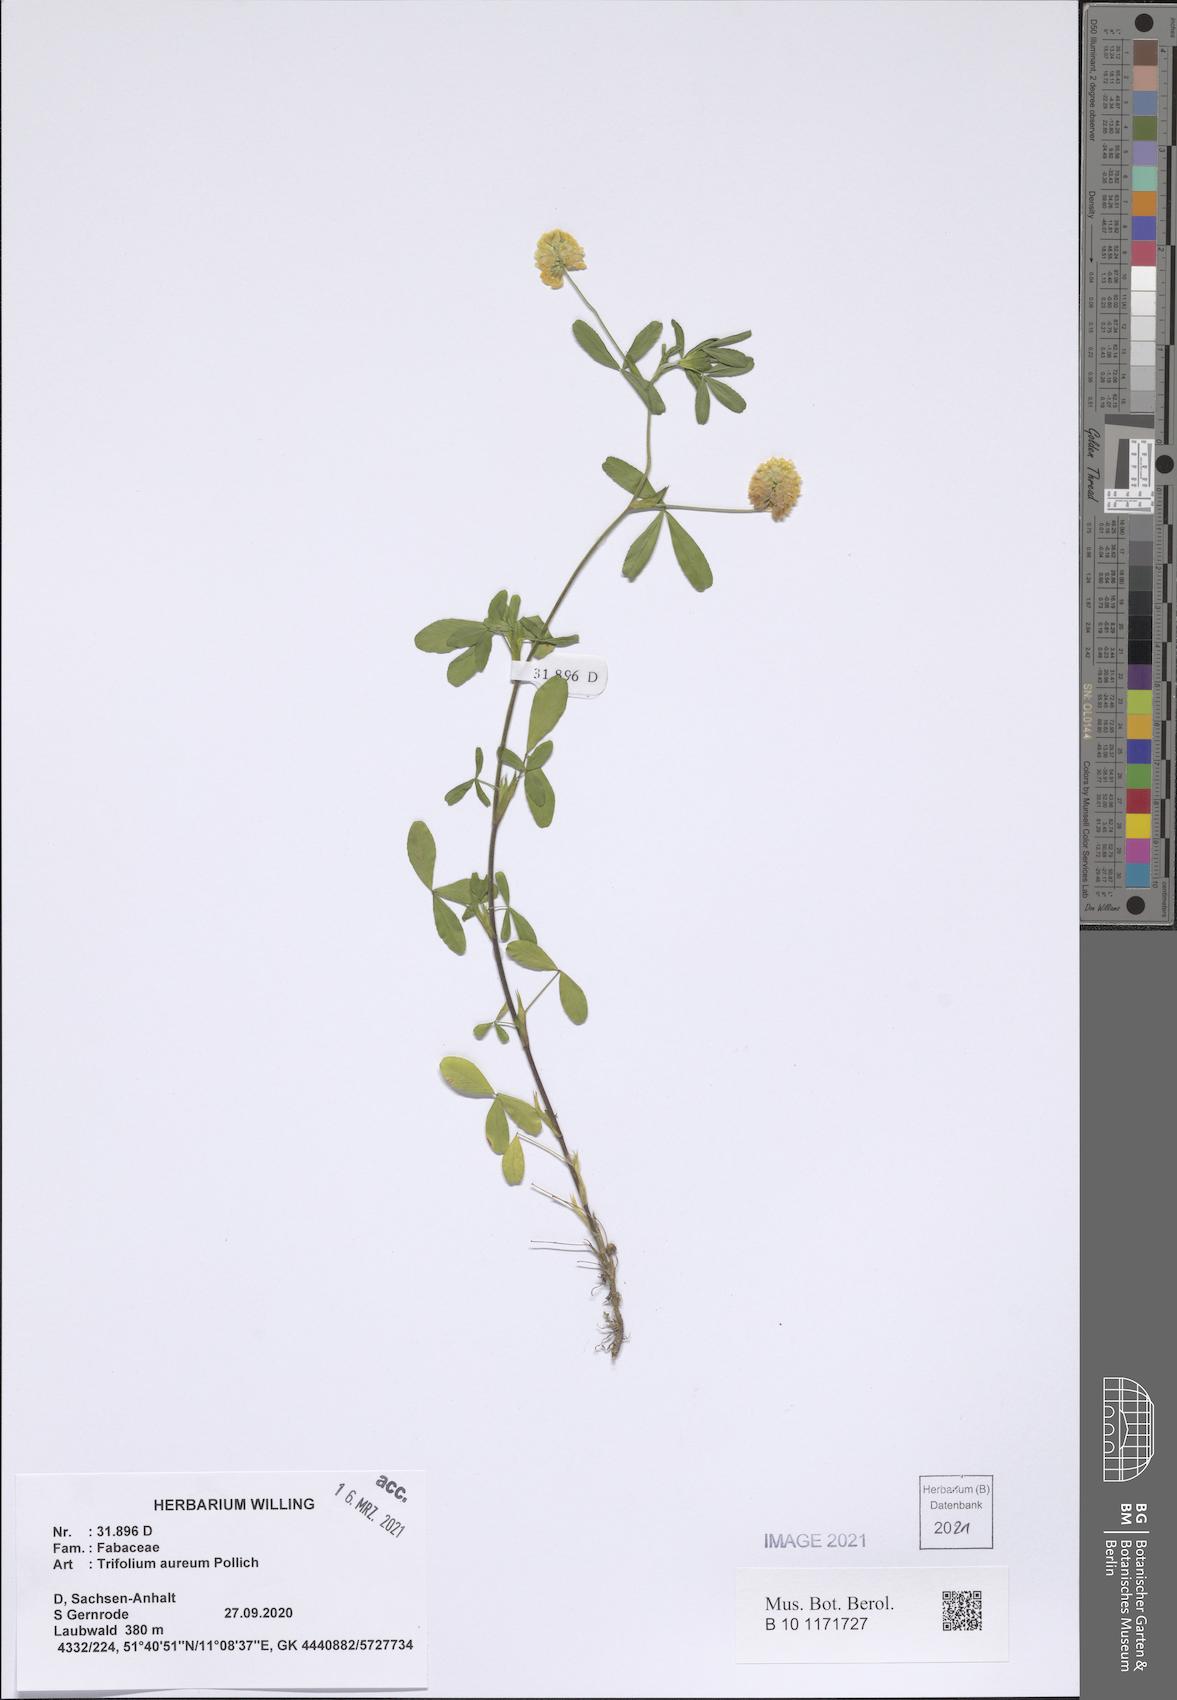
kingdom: Plantae
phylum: Tracheophyta
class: Magnoliopsida
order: Fabales
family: Fabaceae
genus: Trifolium
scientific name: Trifolium aureum
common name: Golden clover
